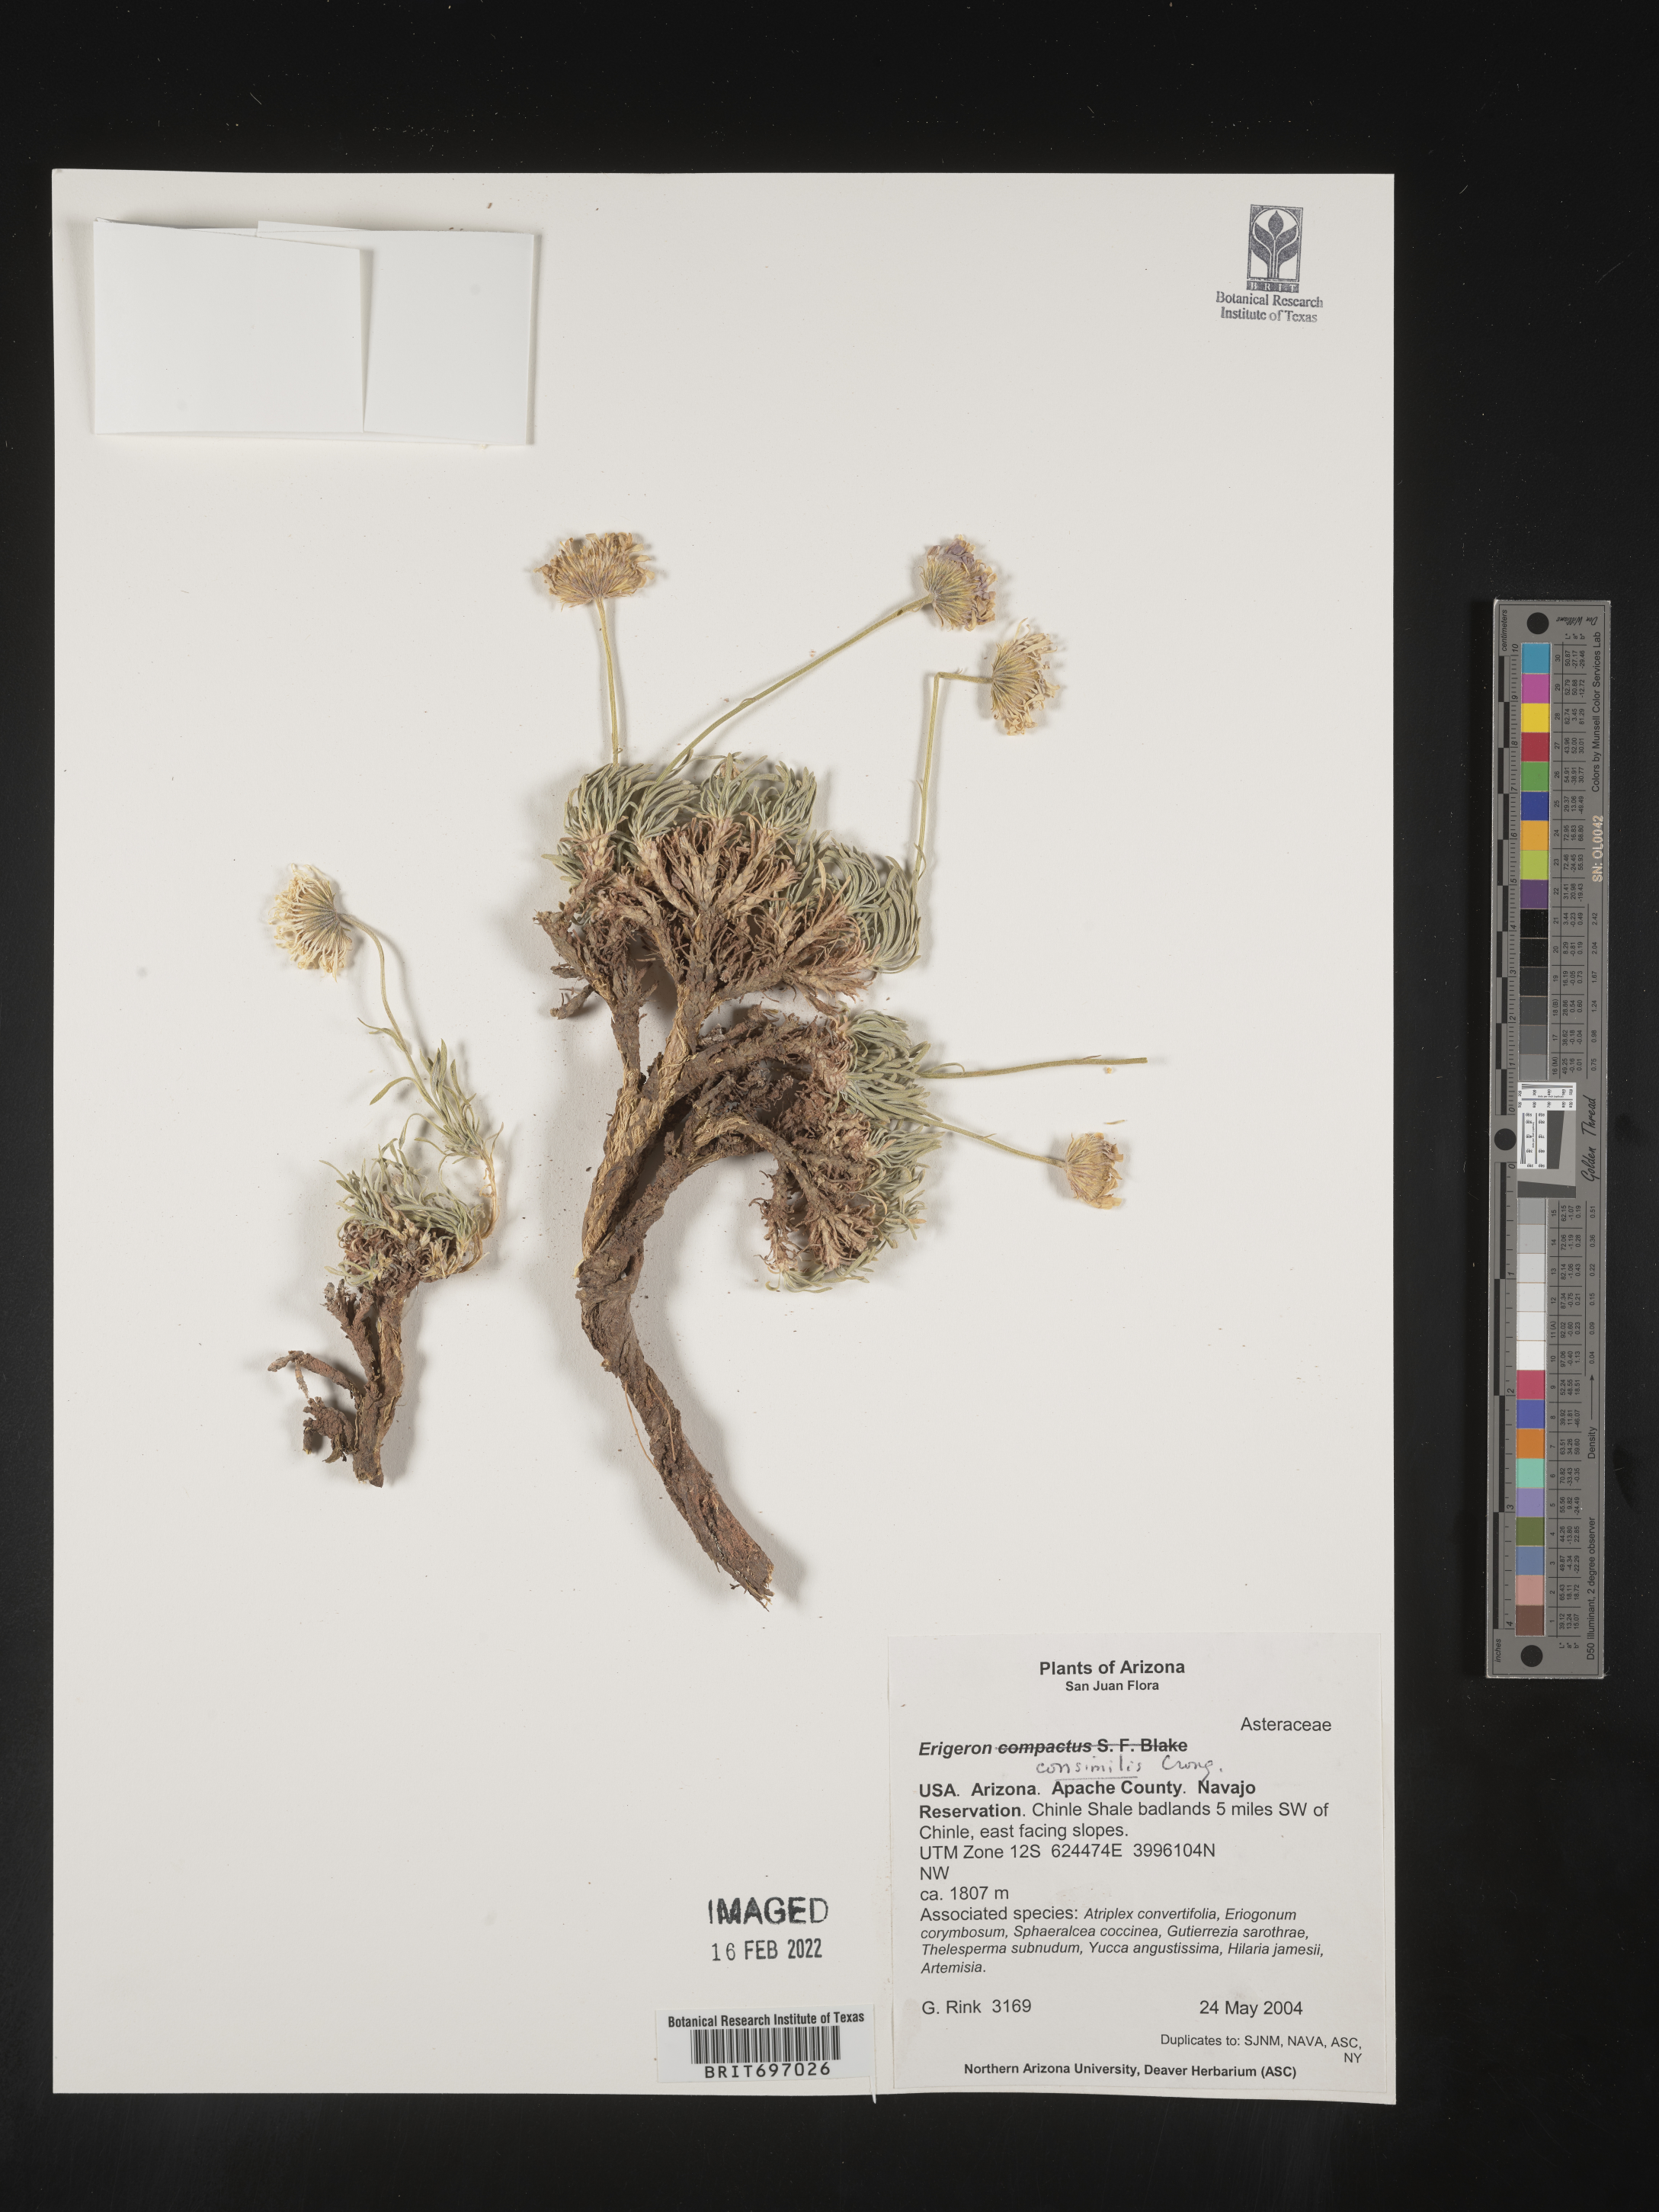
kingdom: Plantae
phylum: Tracheophyta
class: Magnoliopsida
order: Asterales
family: Asteraceae
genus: Erigeron
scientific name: Erigeron consimilis
